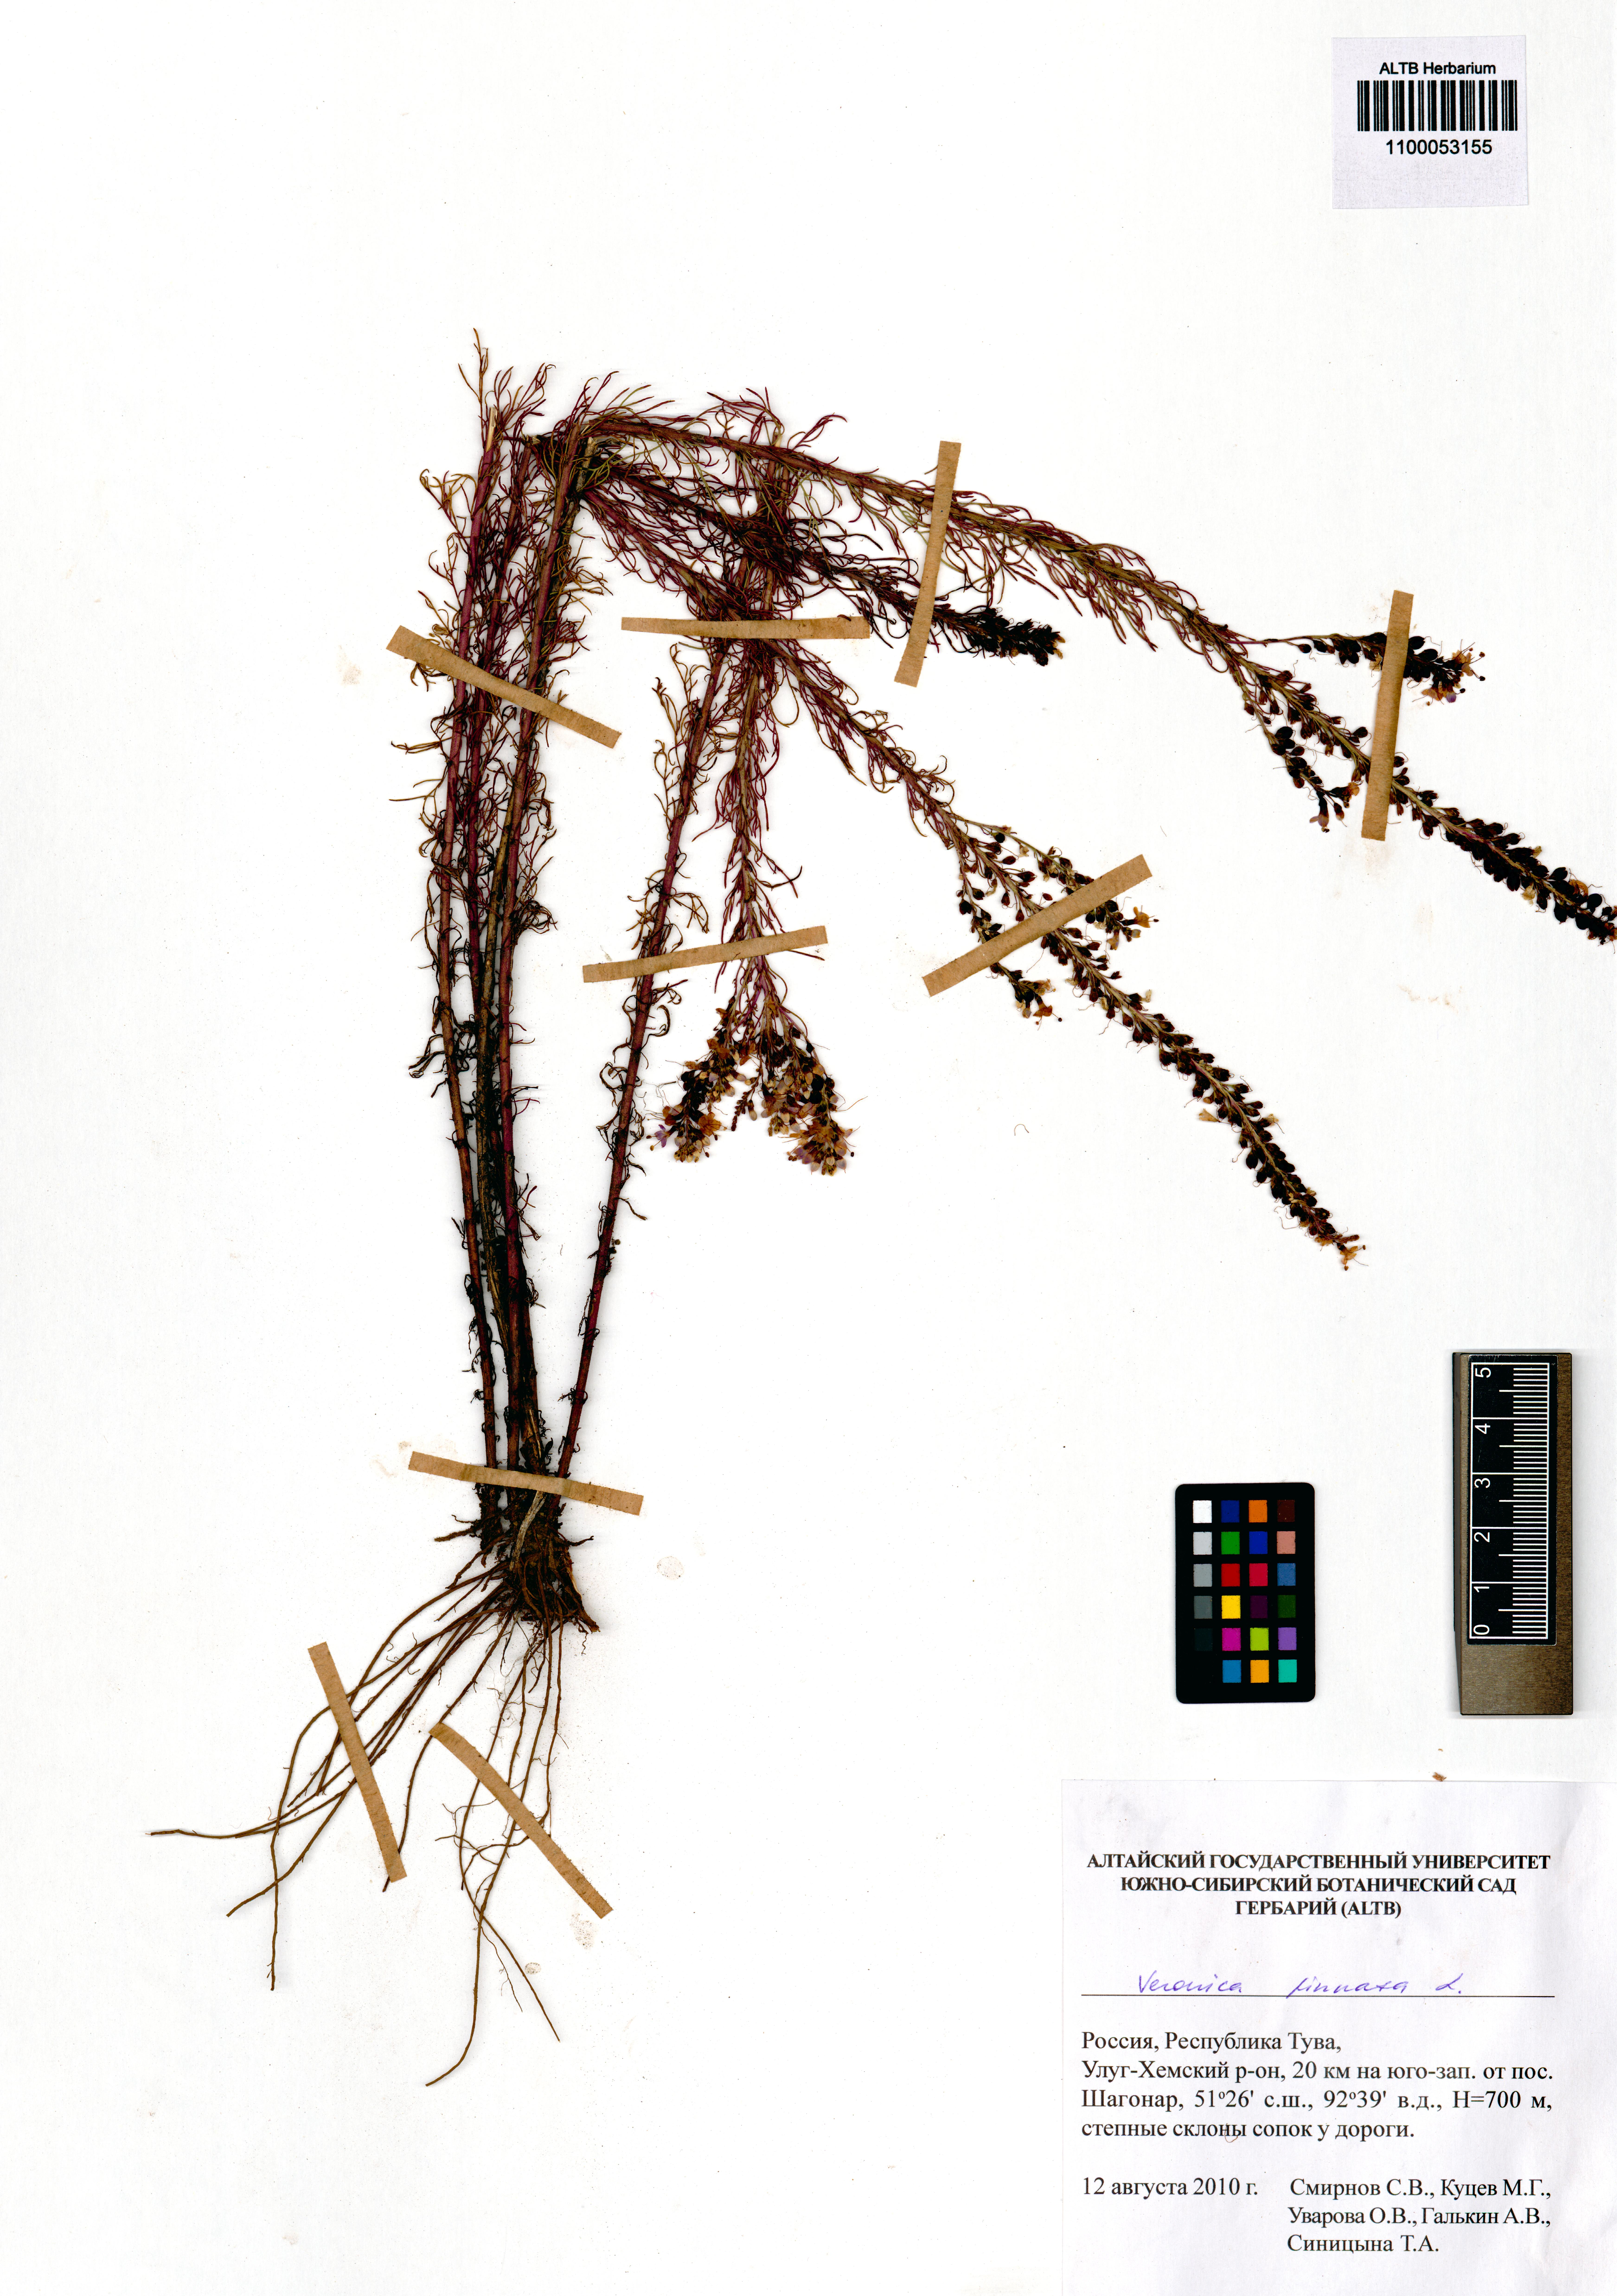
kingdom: Plantae
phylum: Tracheophyta
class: Magnoliopsida
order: Lamiales
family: Plantaginaceae
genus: Veronica
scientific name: Veronica pinnata
